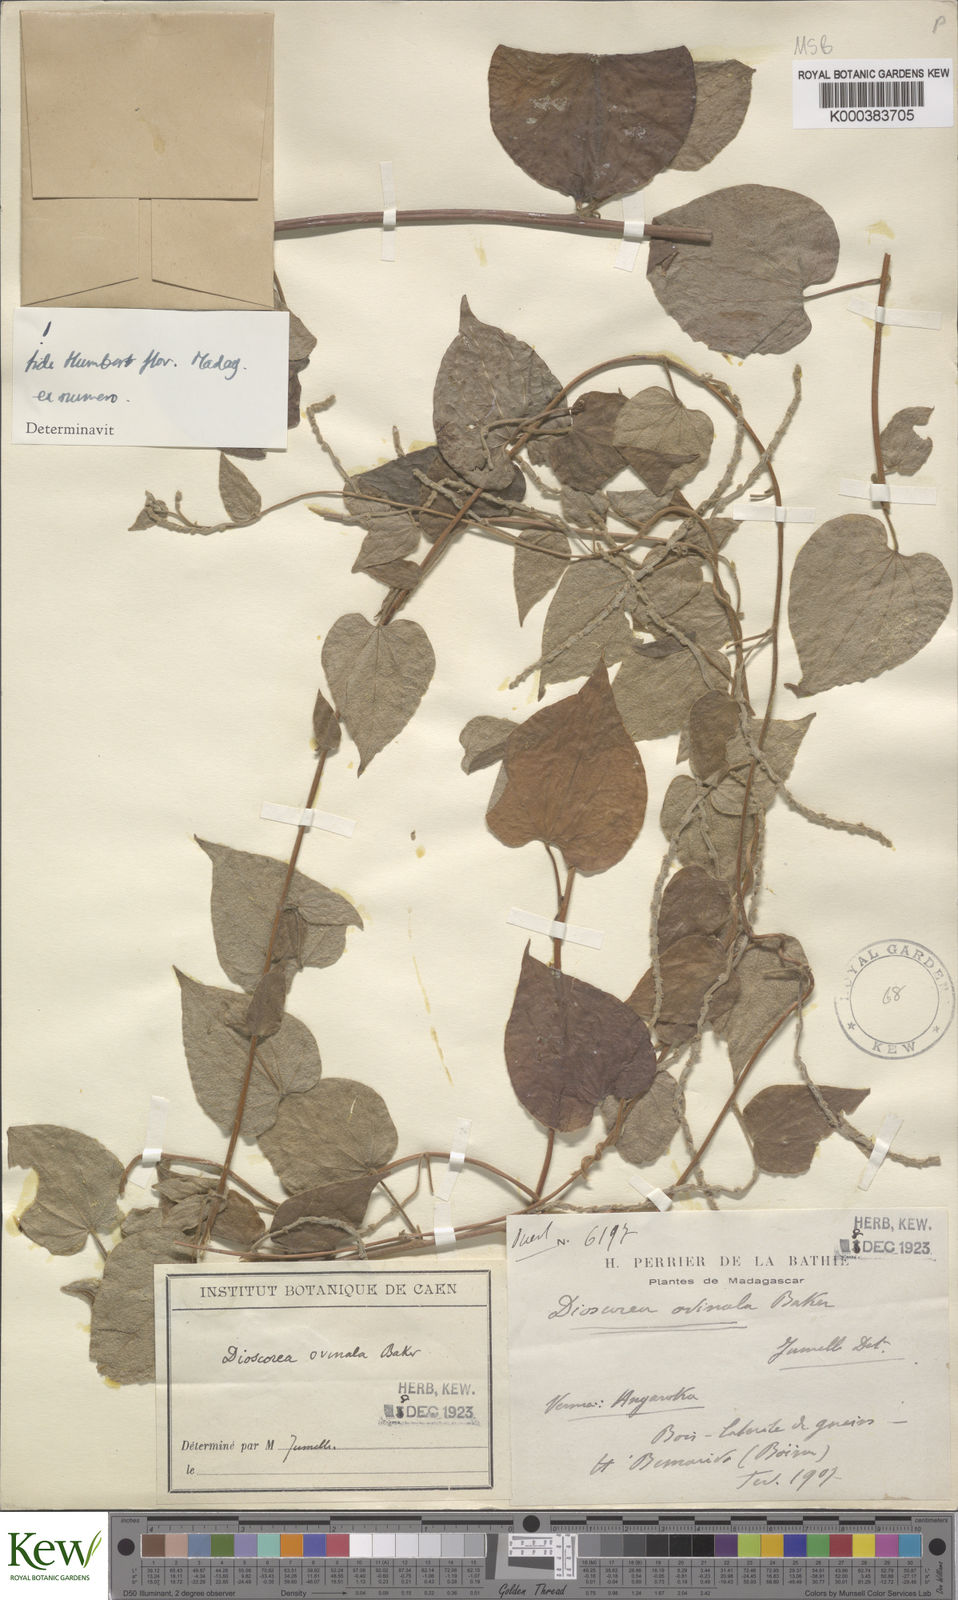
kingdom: Plantae
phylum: Tracheophyta
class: Liliopsida
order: Dioscoreales
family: Dioscoreaceae
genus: Dioscorea
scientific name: Dioscorea ovinala
